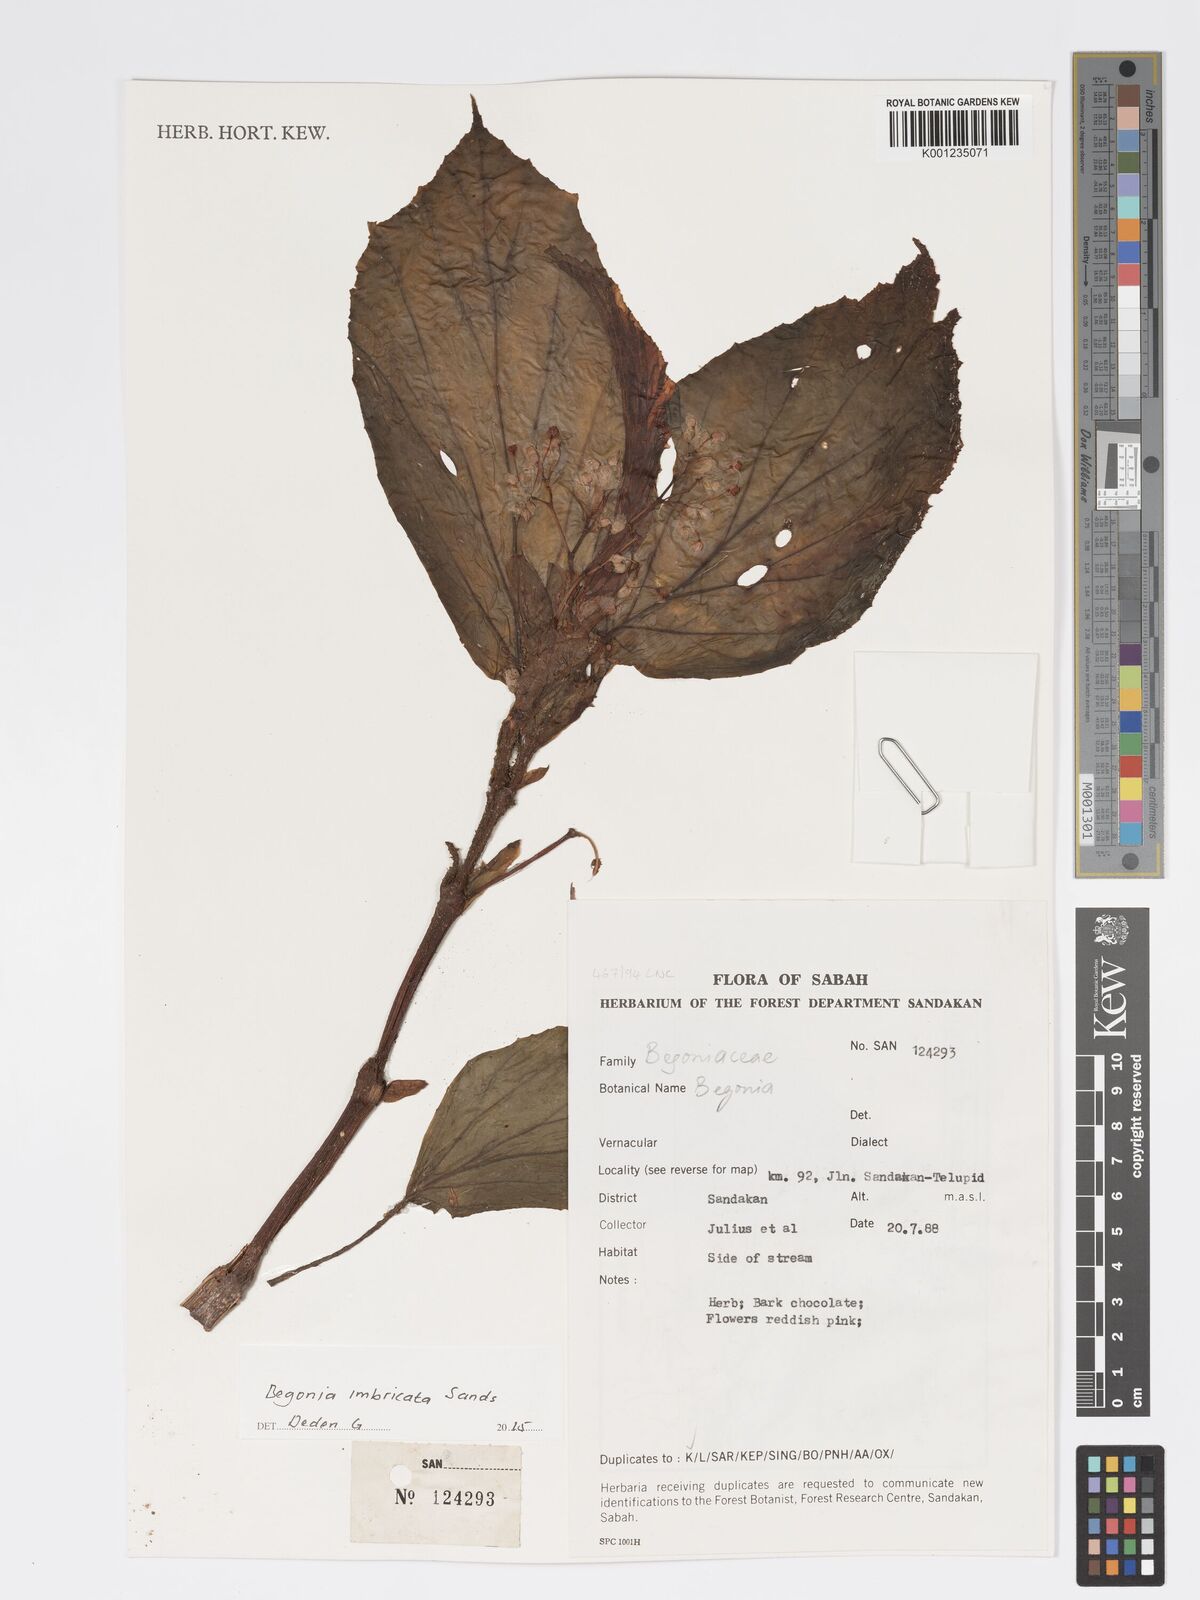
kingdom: Plantae
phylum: Tracheophyta
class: Magnoliopsida
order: Cucurbitales
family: Begoniaceae
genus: Begonia
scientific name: Begonia imbricata
